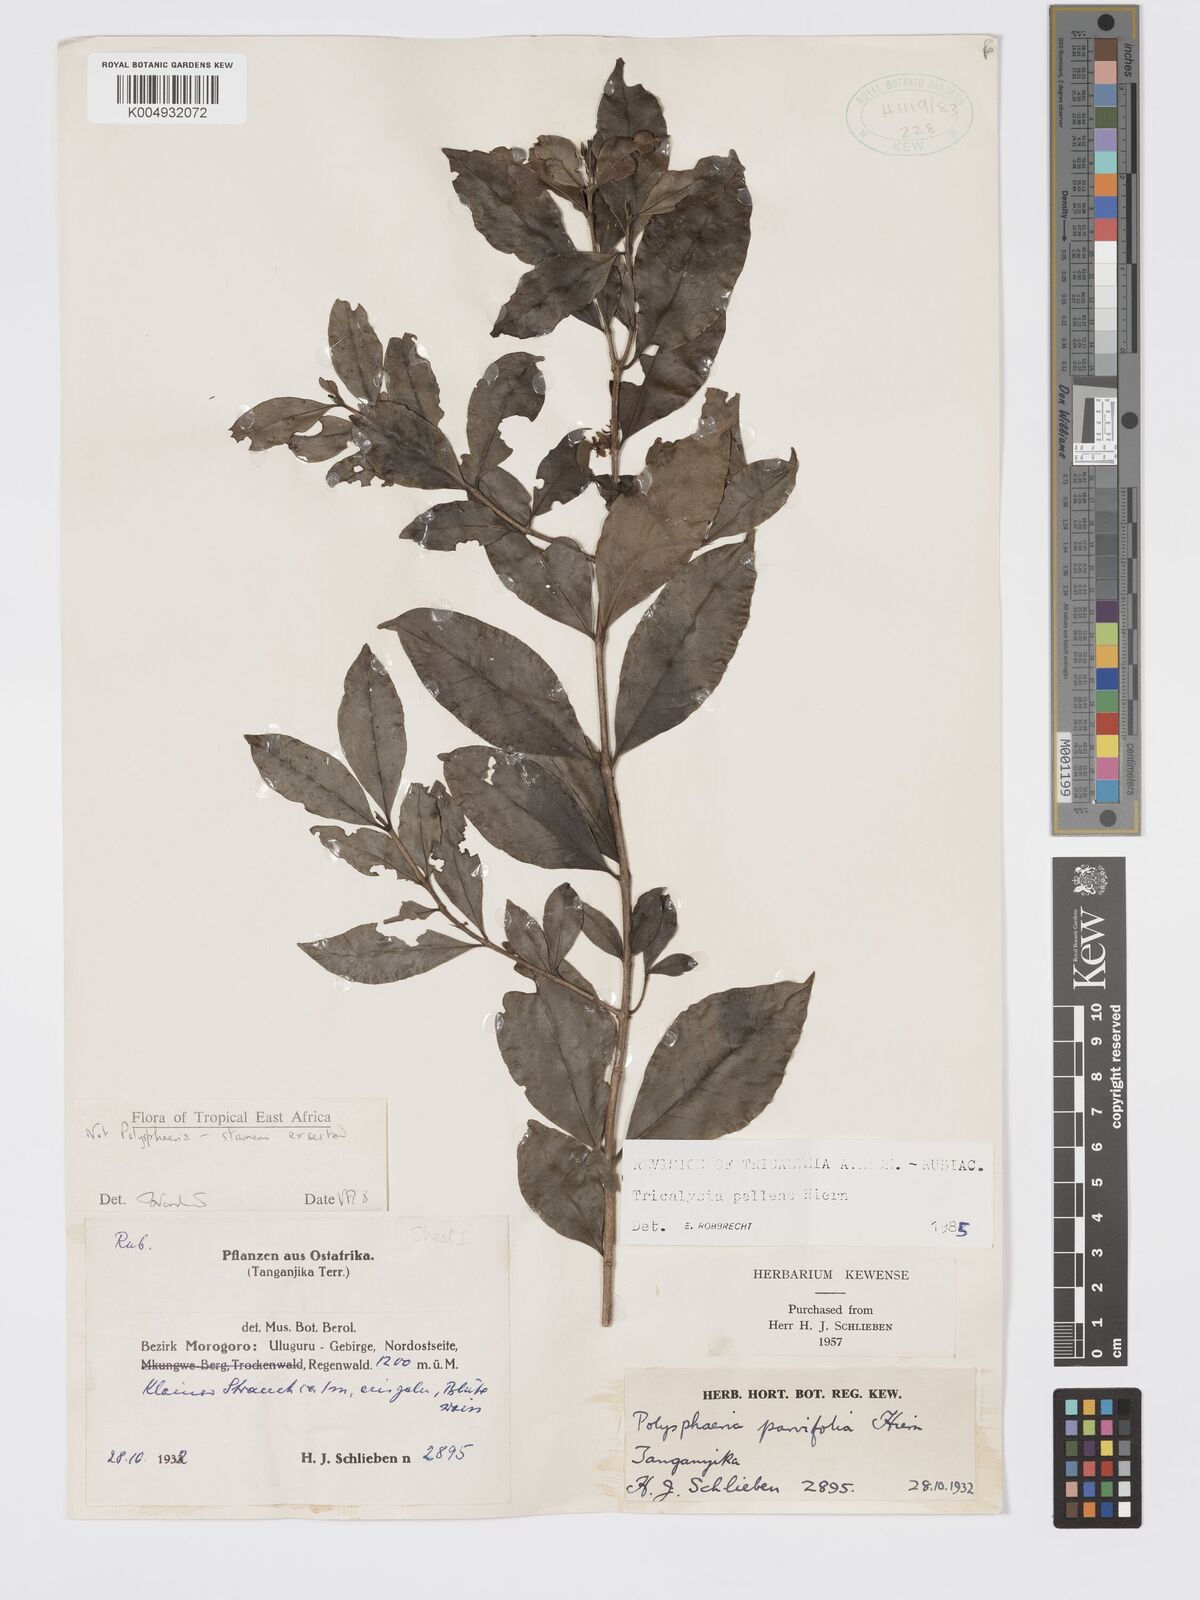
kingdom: Plantae
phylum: Tracheophyta
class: Magnoliopsida
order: Gentianales
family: Rubiaceae
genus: Tricalysia
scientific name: Tricalysia pallens
